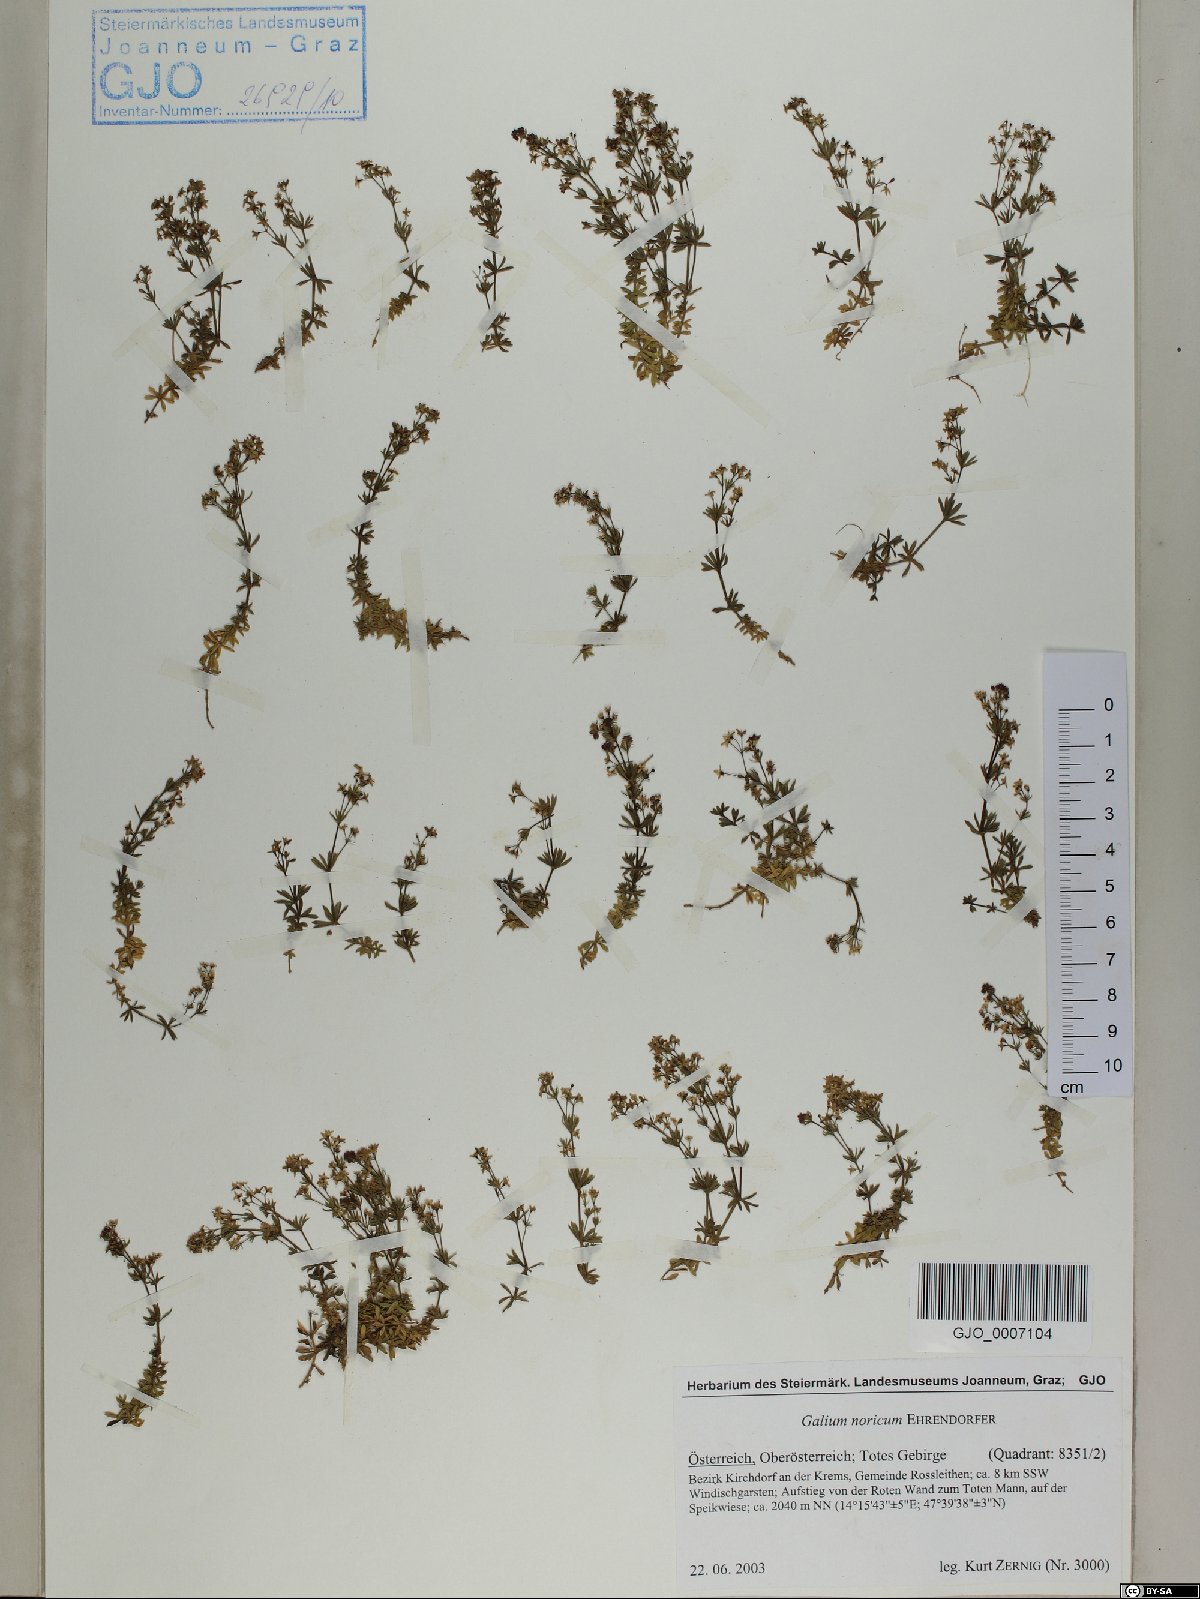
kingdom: Plantae
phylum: Tracheophyta
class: Magnoliopsida
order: Gentianales
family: Rubiaceae
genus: Galium
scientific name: Galium noricum
